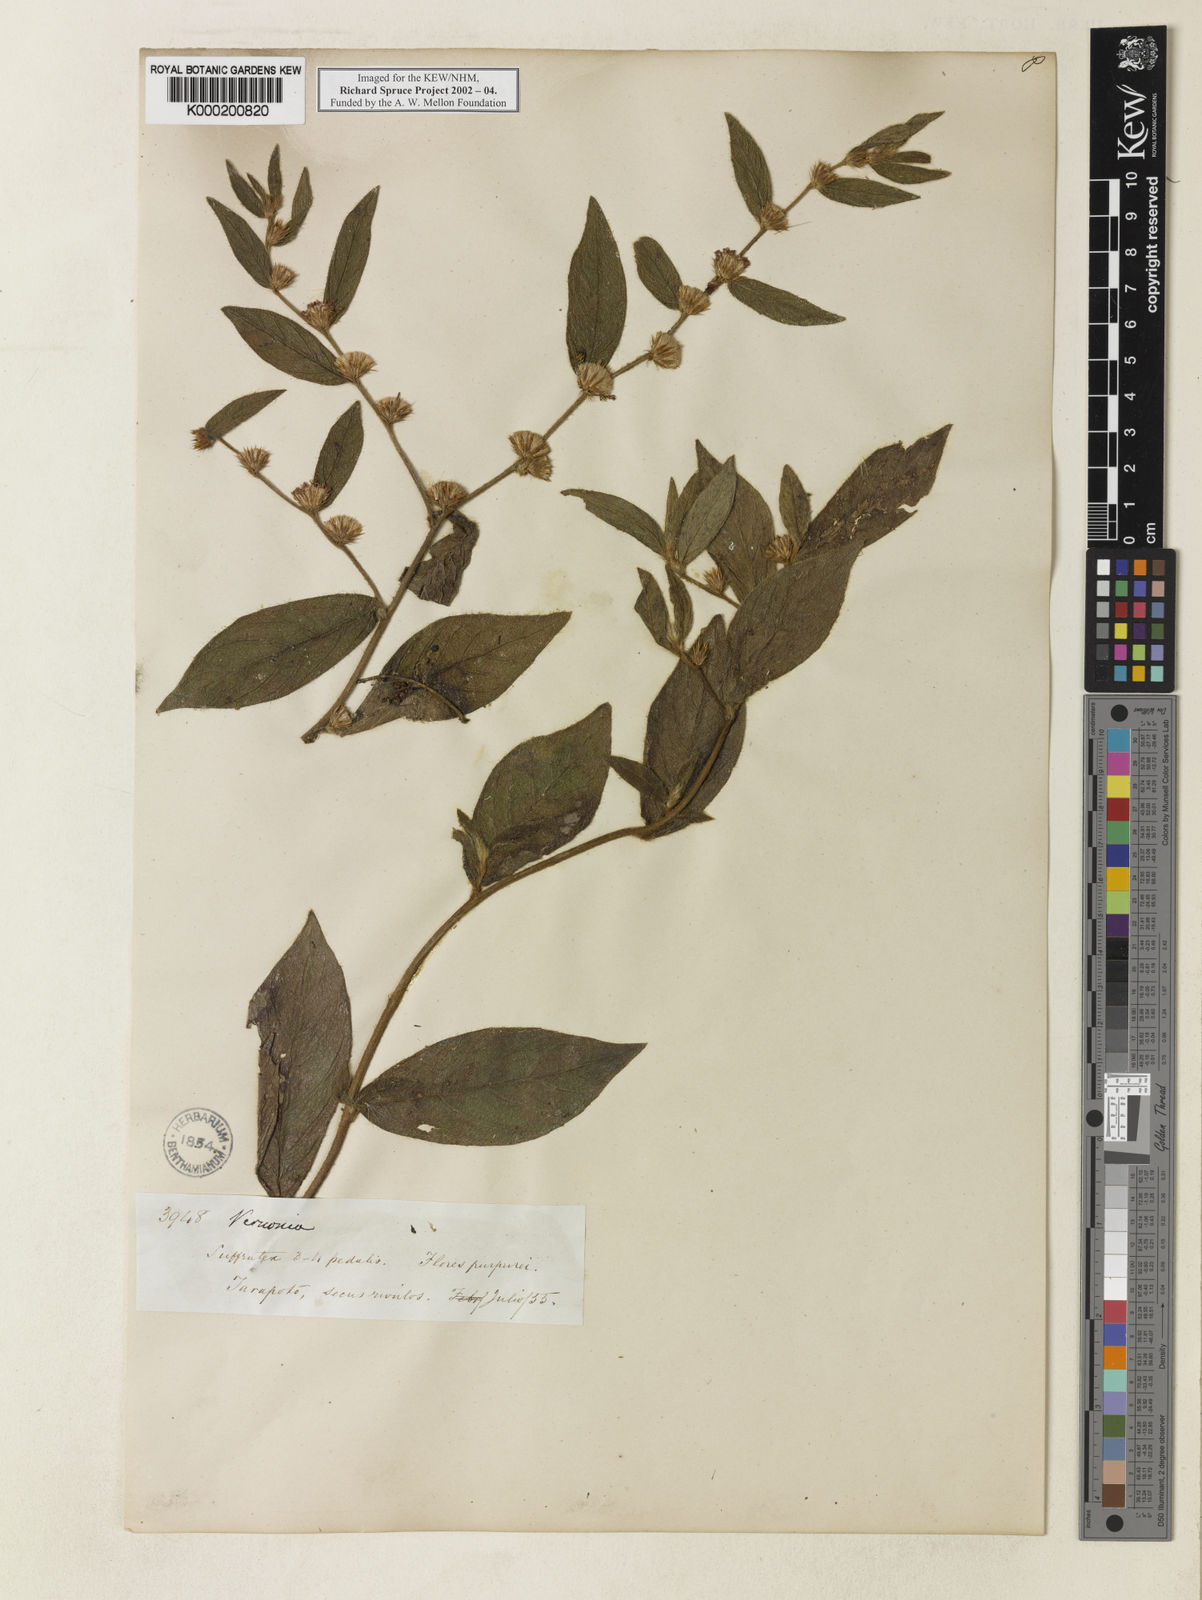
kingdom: Plantae
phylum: Tracheophyta
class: Magnoliopsida
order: Asterales
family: Asteraceae
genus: Vernonia
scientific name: Vernonia
